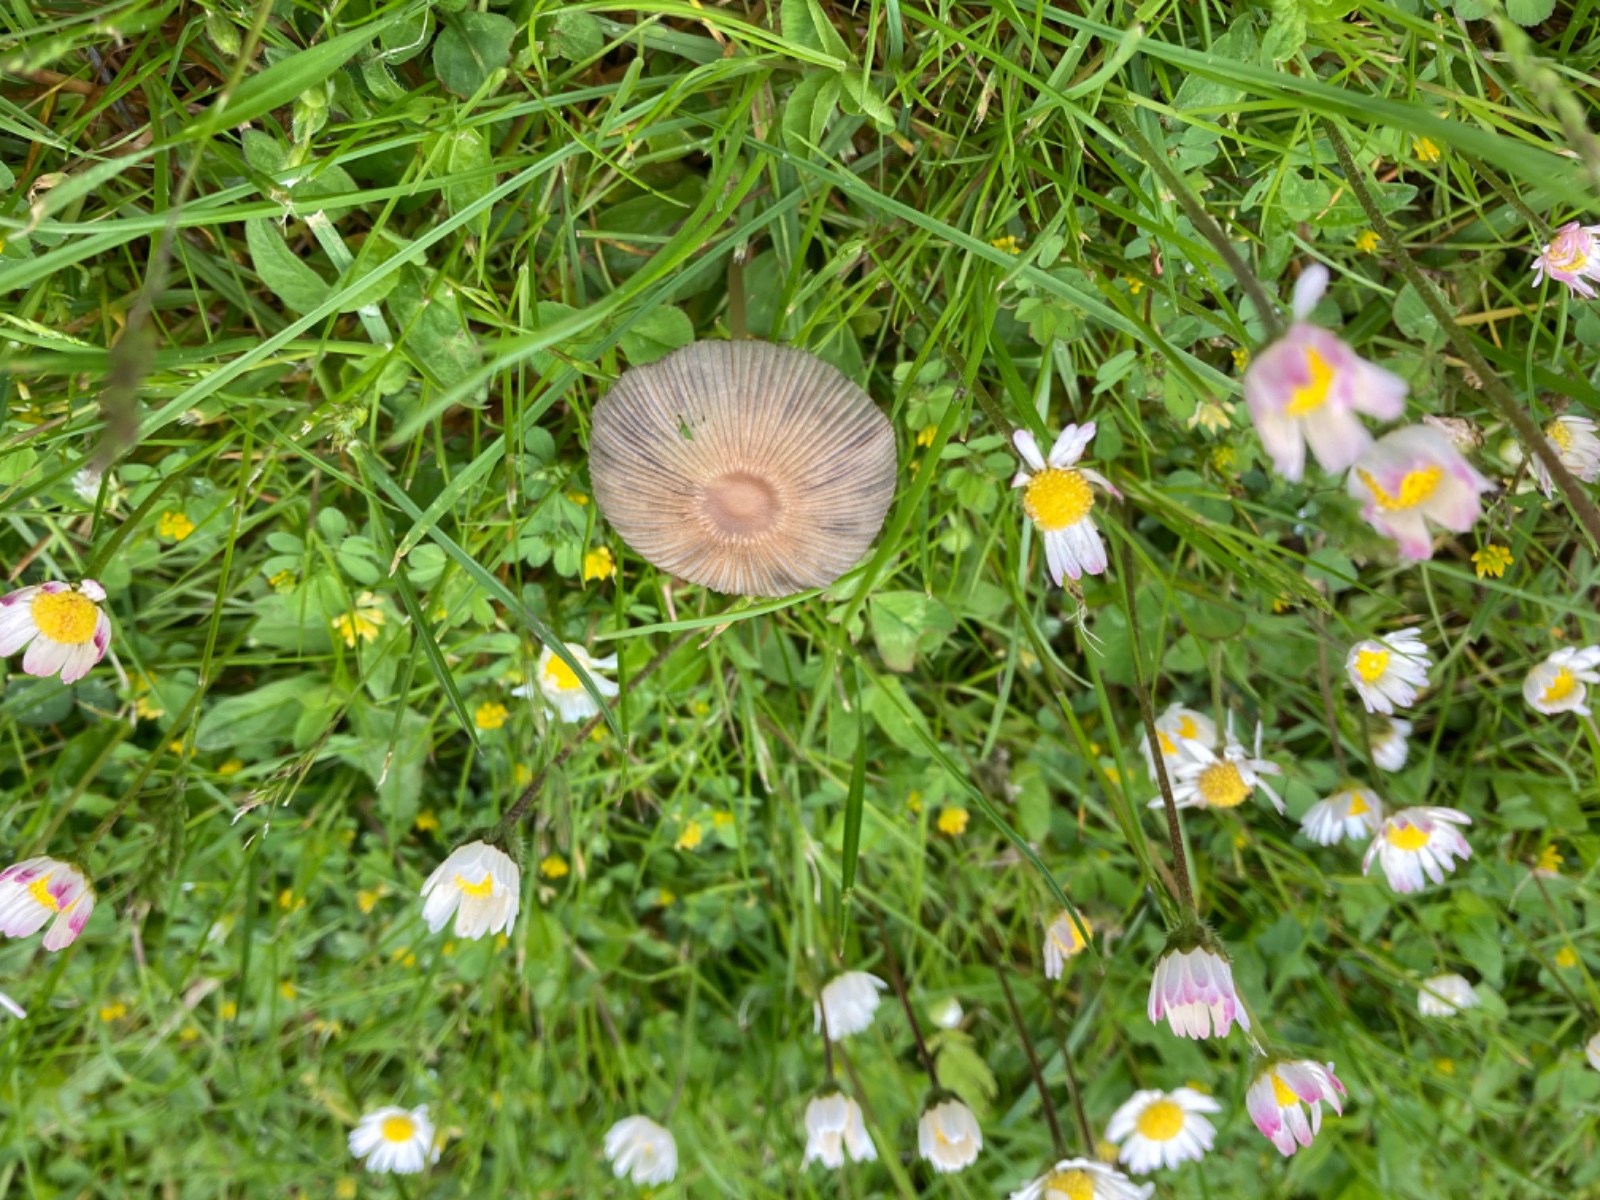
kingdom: Fungi
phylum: Basidiomycota
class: Agaricomycetes
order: Agaricales
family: Psathyrellaceae
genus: Parasola
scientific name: Parasola auricoma
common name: hansens hjulhat
